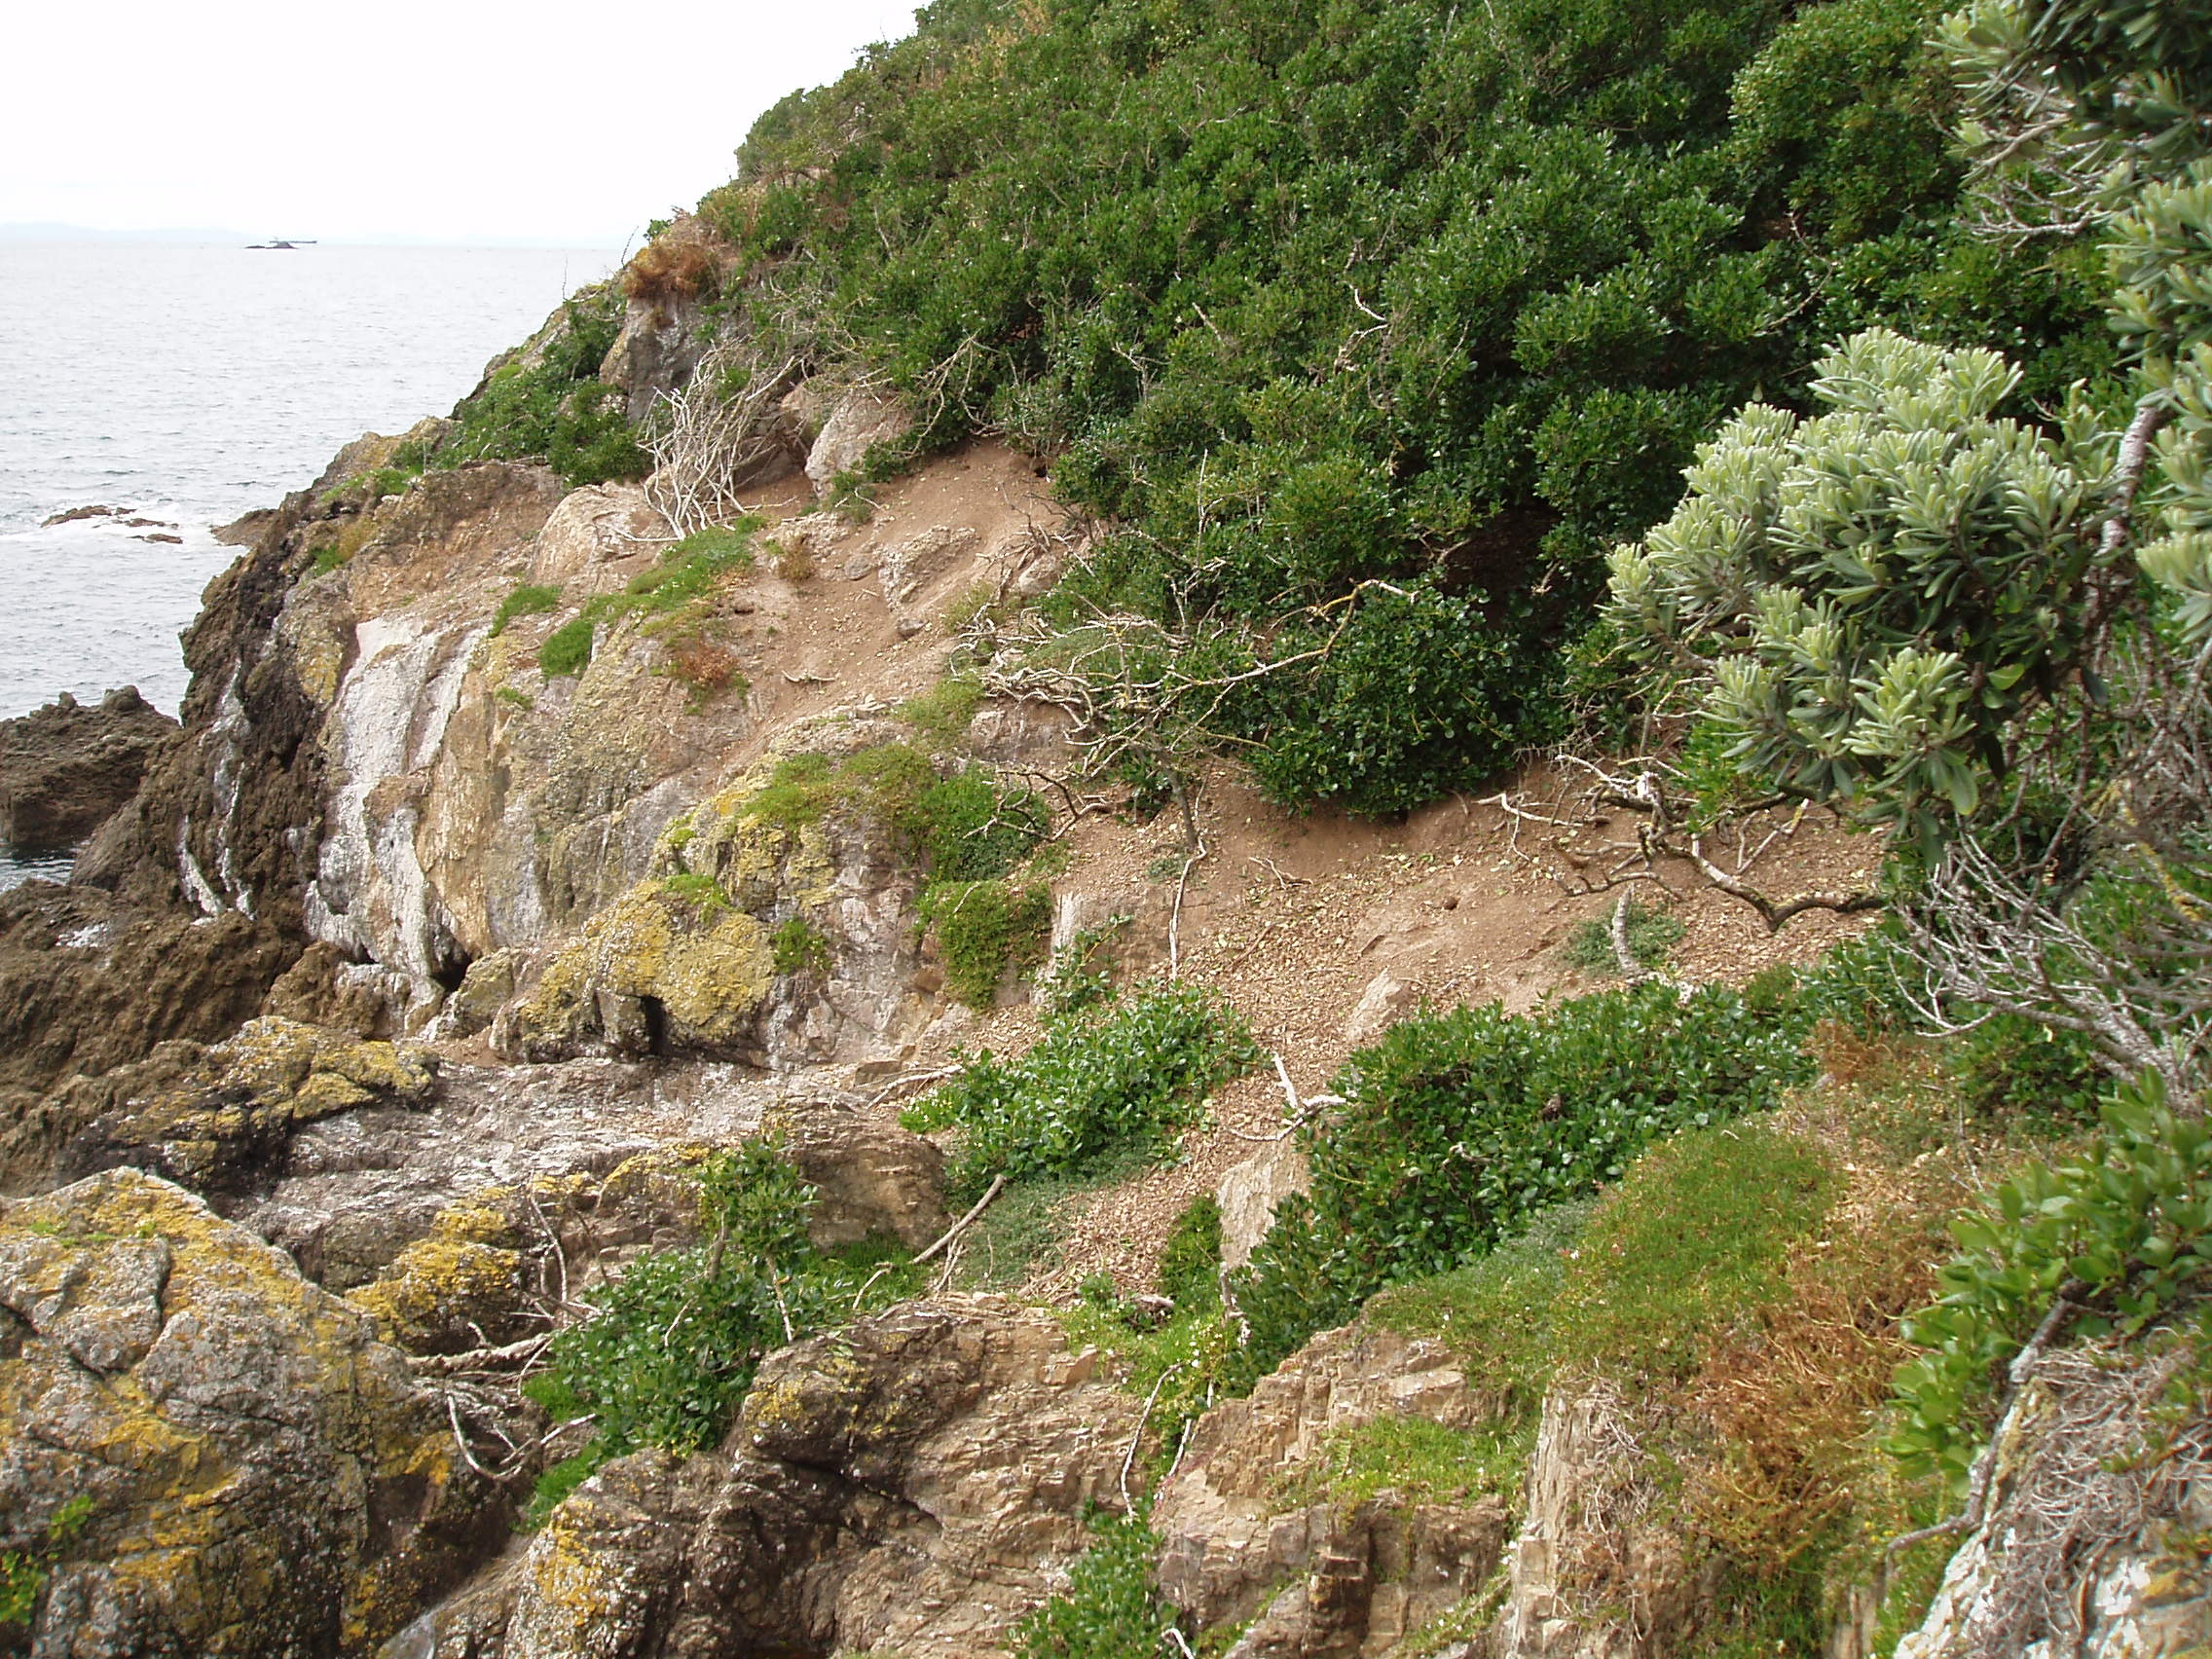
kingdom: Plantae
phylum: Tracheophyta
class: Liliopsida
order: Poales
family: Poaceae
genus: Lachnagrostis
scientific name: Lachnagrostis littoralis
